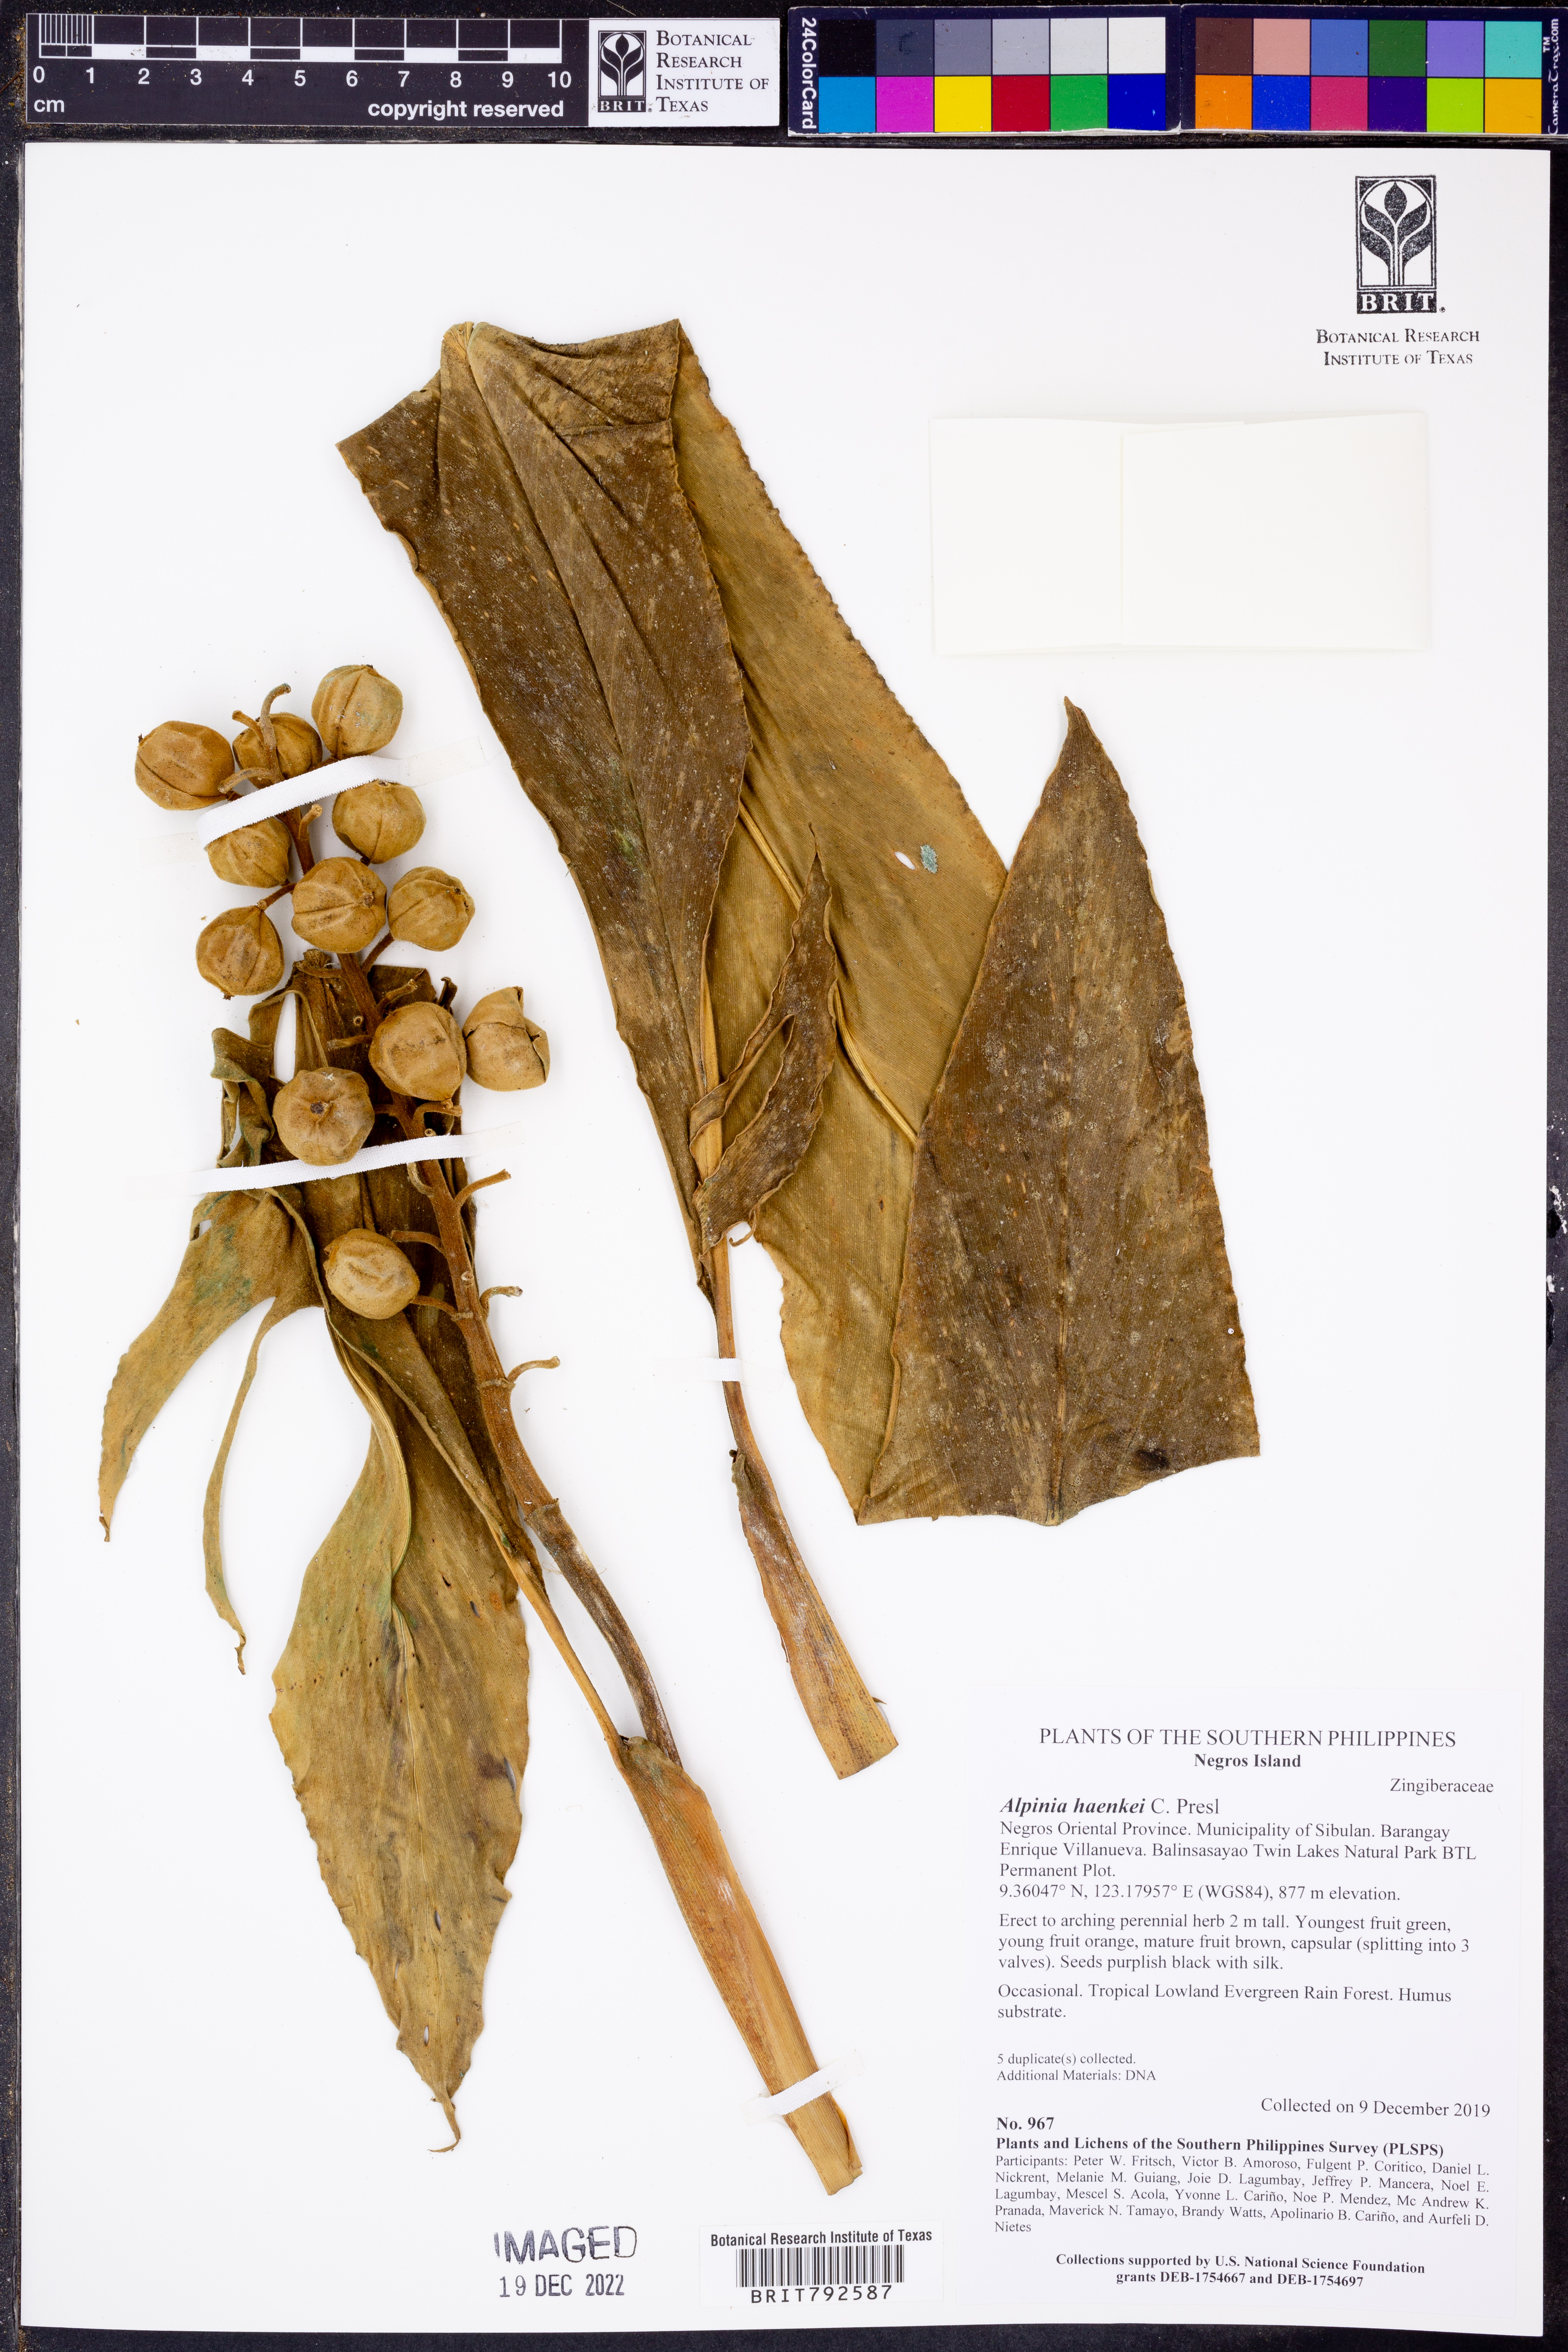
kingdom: Plantae
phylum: Tracheophyta
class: Liliopsida
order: Zingiberales
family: Zingiberaceae
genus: Alpinia
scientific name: Alpinia haenkei
